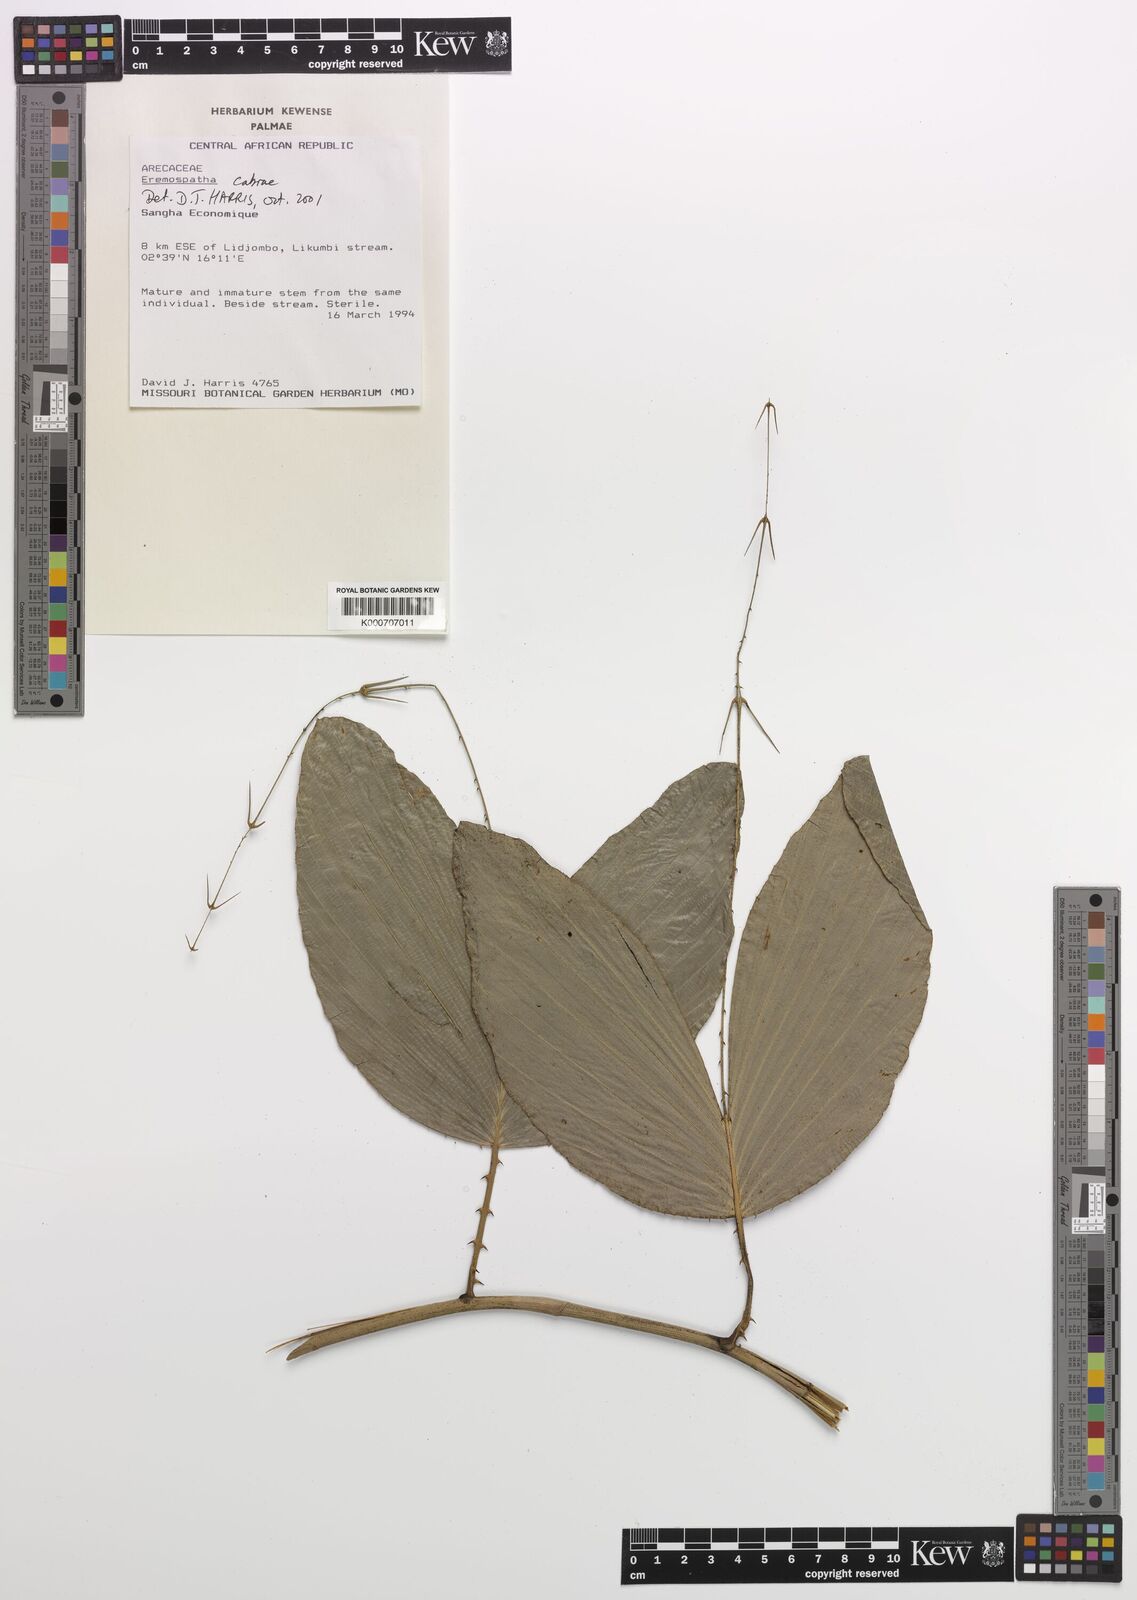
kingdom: Plantae
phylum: Tracheophyta
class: Liliopsida
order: Arecales
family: Arecaceae
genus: Eremospatha
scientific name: Eremospatha cabrae
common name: Rattan
